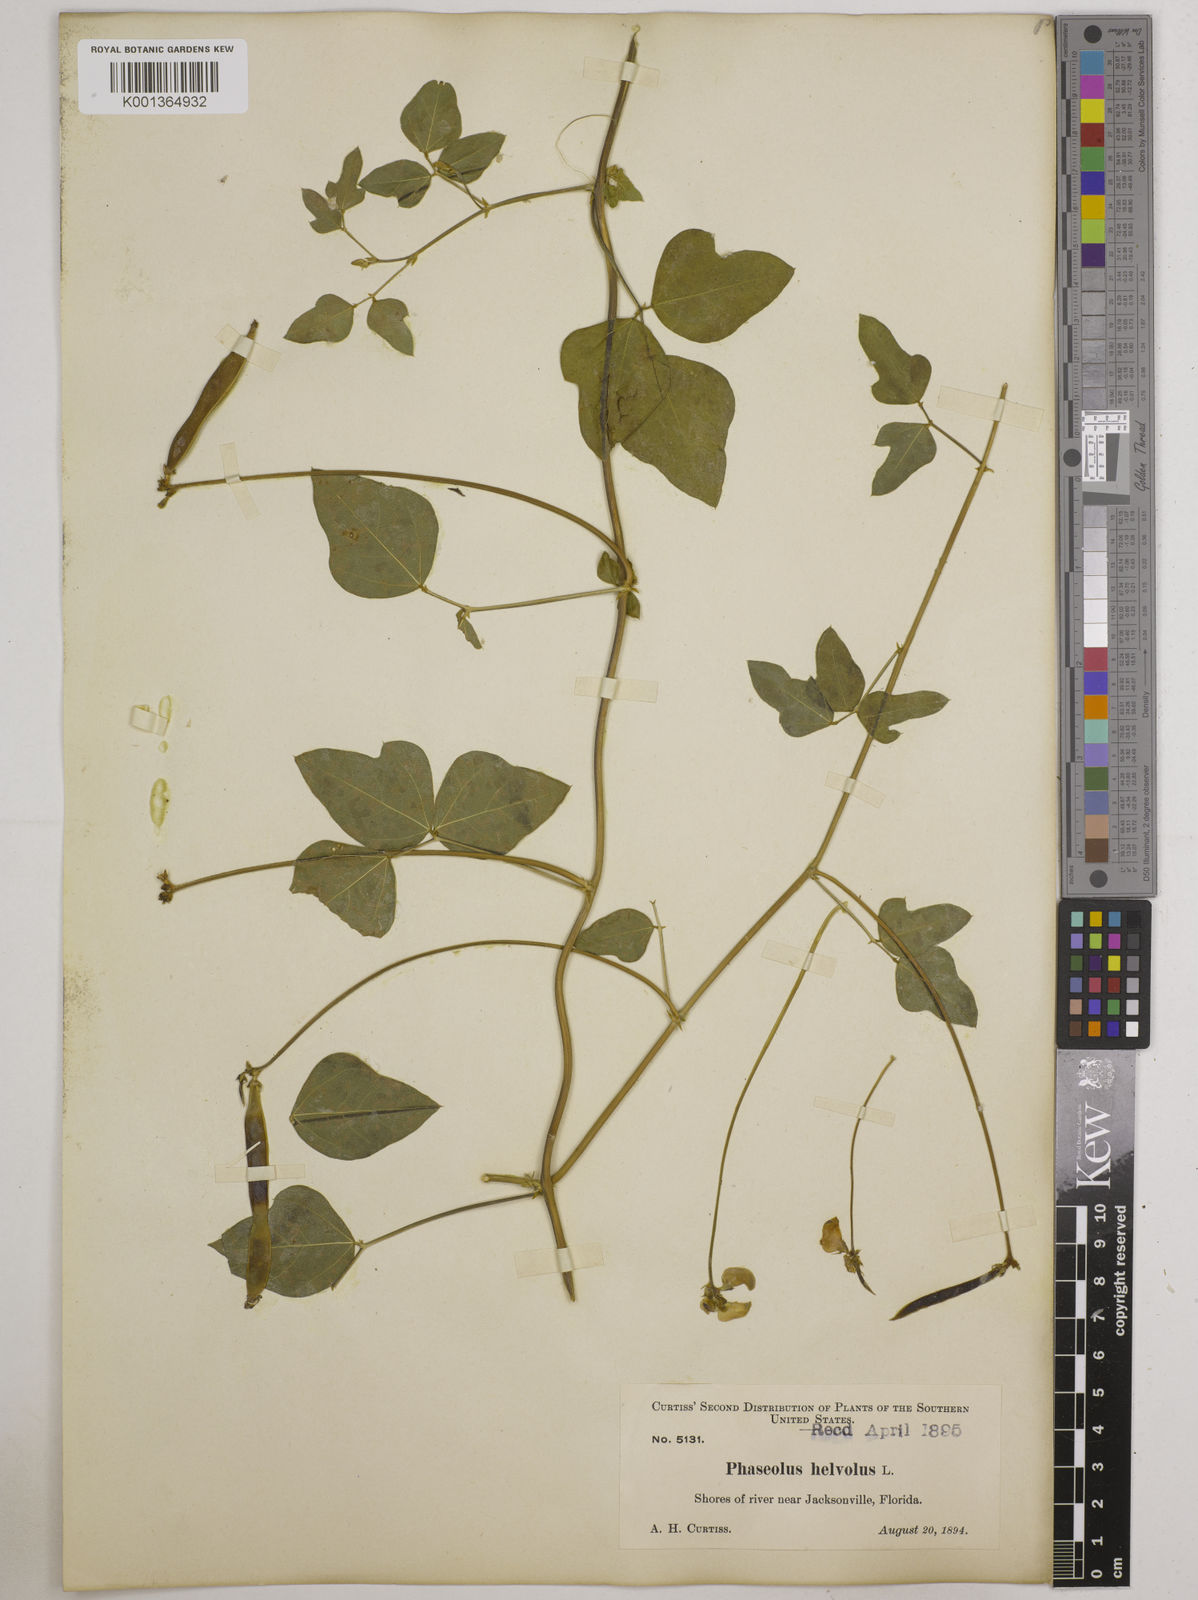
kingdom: Plantae
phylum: Tracheophyta
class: Magnoliopsida
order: Fabales
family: Fabaceae
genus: Strophostyles
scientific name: Strophostyles
